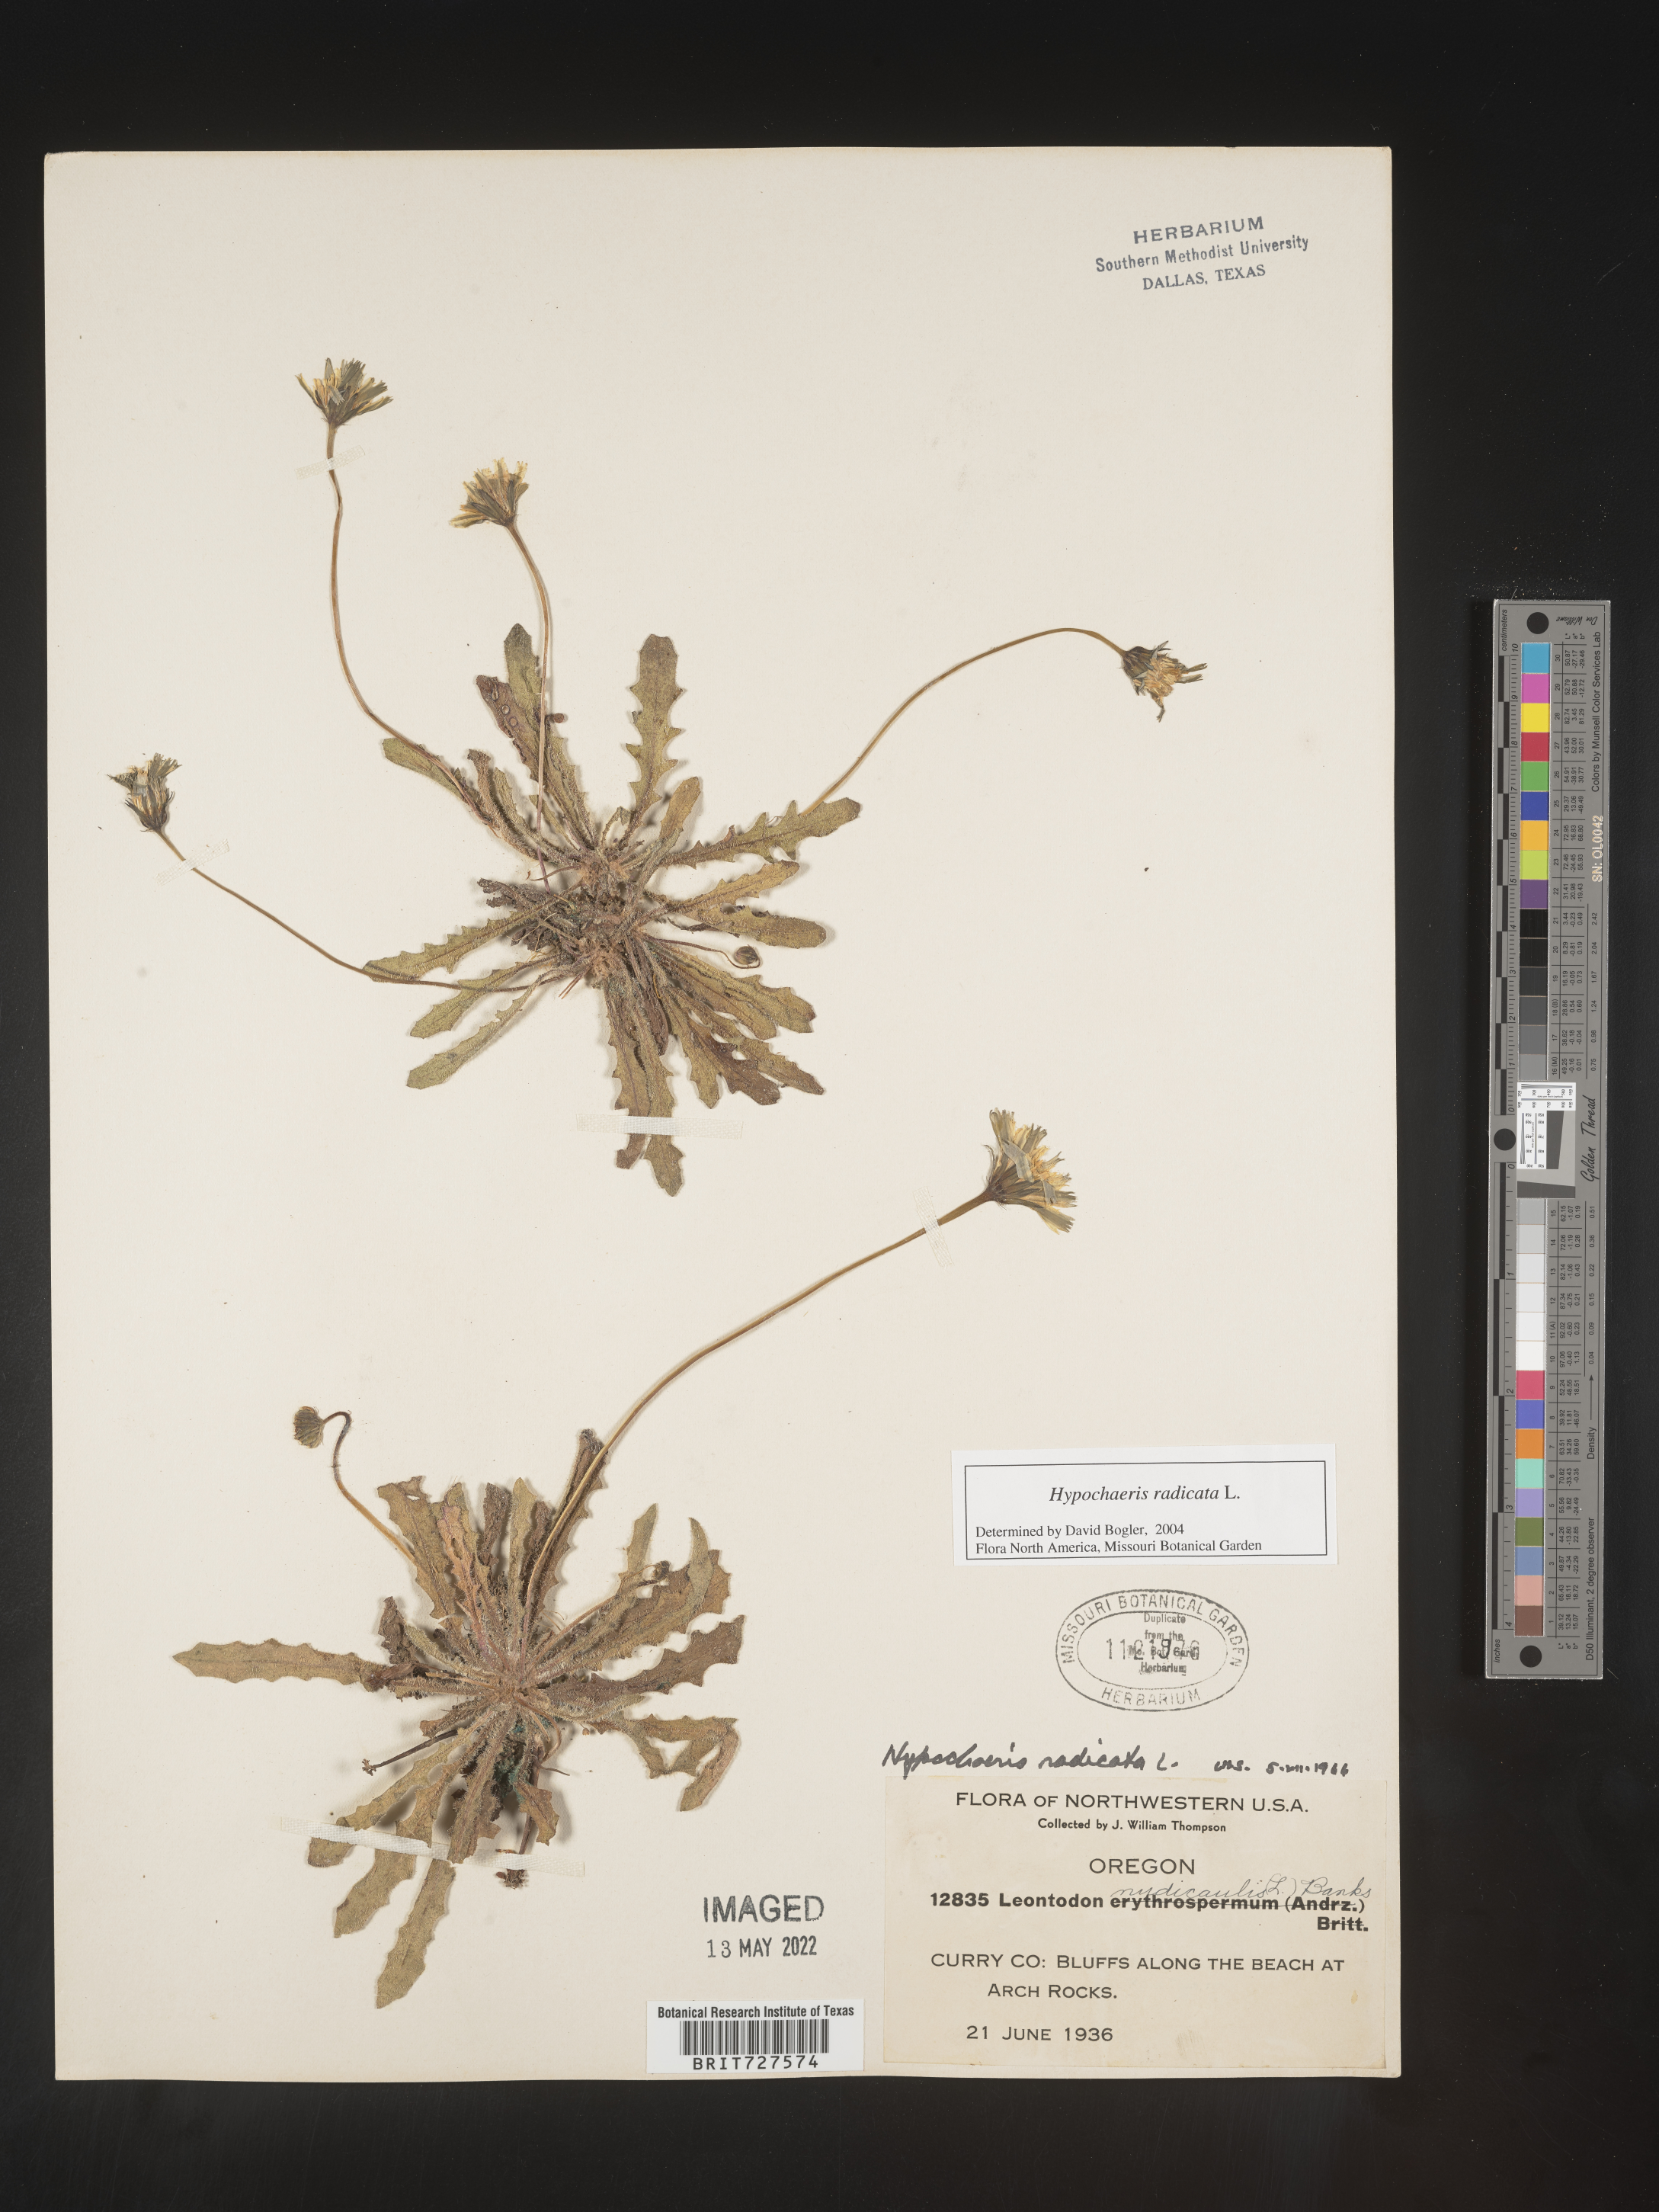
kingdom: Plantae
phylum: Tracheophyta
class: Magnoliopsida
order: Asterales
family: Asteraceae
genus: Hypochaeris
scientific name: Hypochaeris radicata
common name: Flatweed
